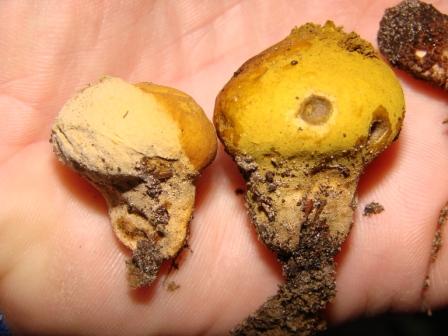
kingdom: Fungi
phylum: Basidiomycota
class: Agaricomycetes
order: Agaricales
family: Lycoperdaceae
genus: Lycoperdon
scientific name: Lycoperdon lividum
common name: mark-støvbold
